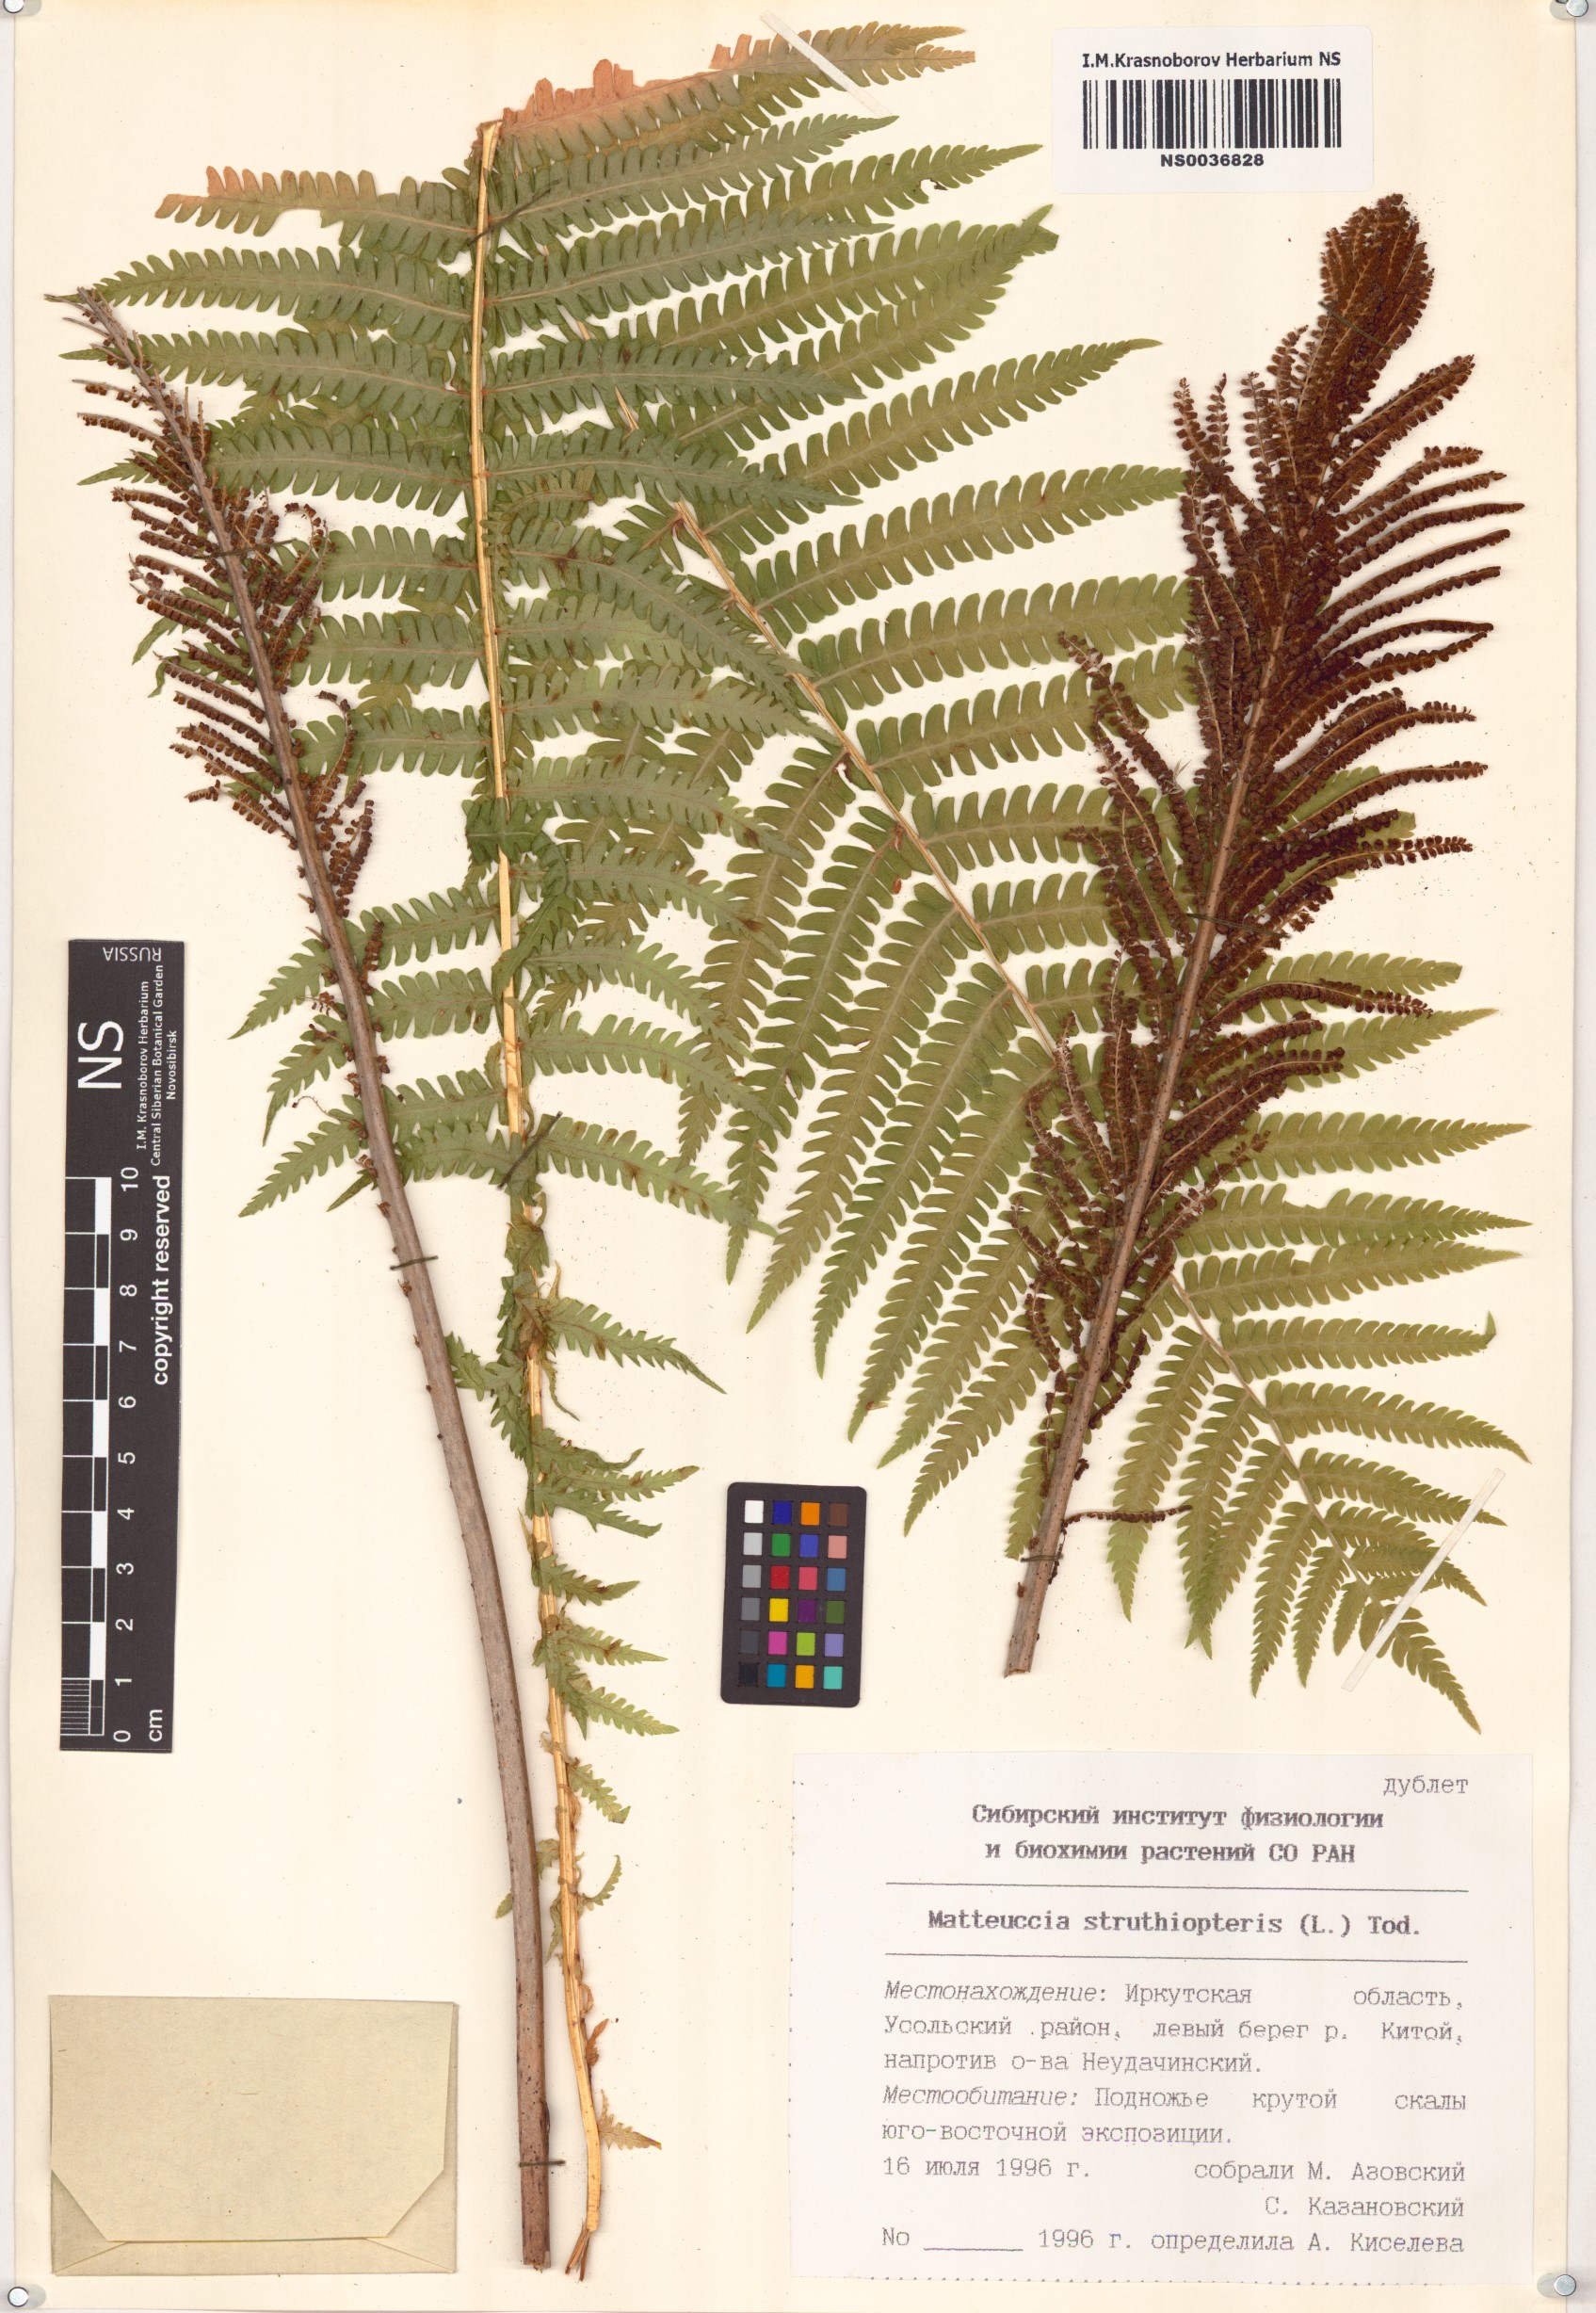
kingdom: Plantae
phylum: Tracheophyta
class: Polypodiopsida
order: Polypodiales
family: Onocleaceae
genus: Matteuccia
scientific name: Matteuccia struthiopteris
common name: Ostrich fern
